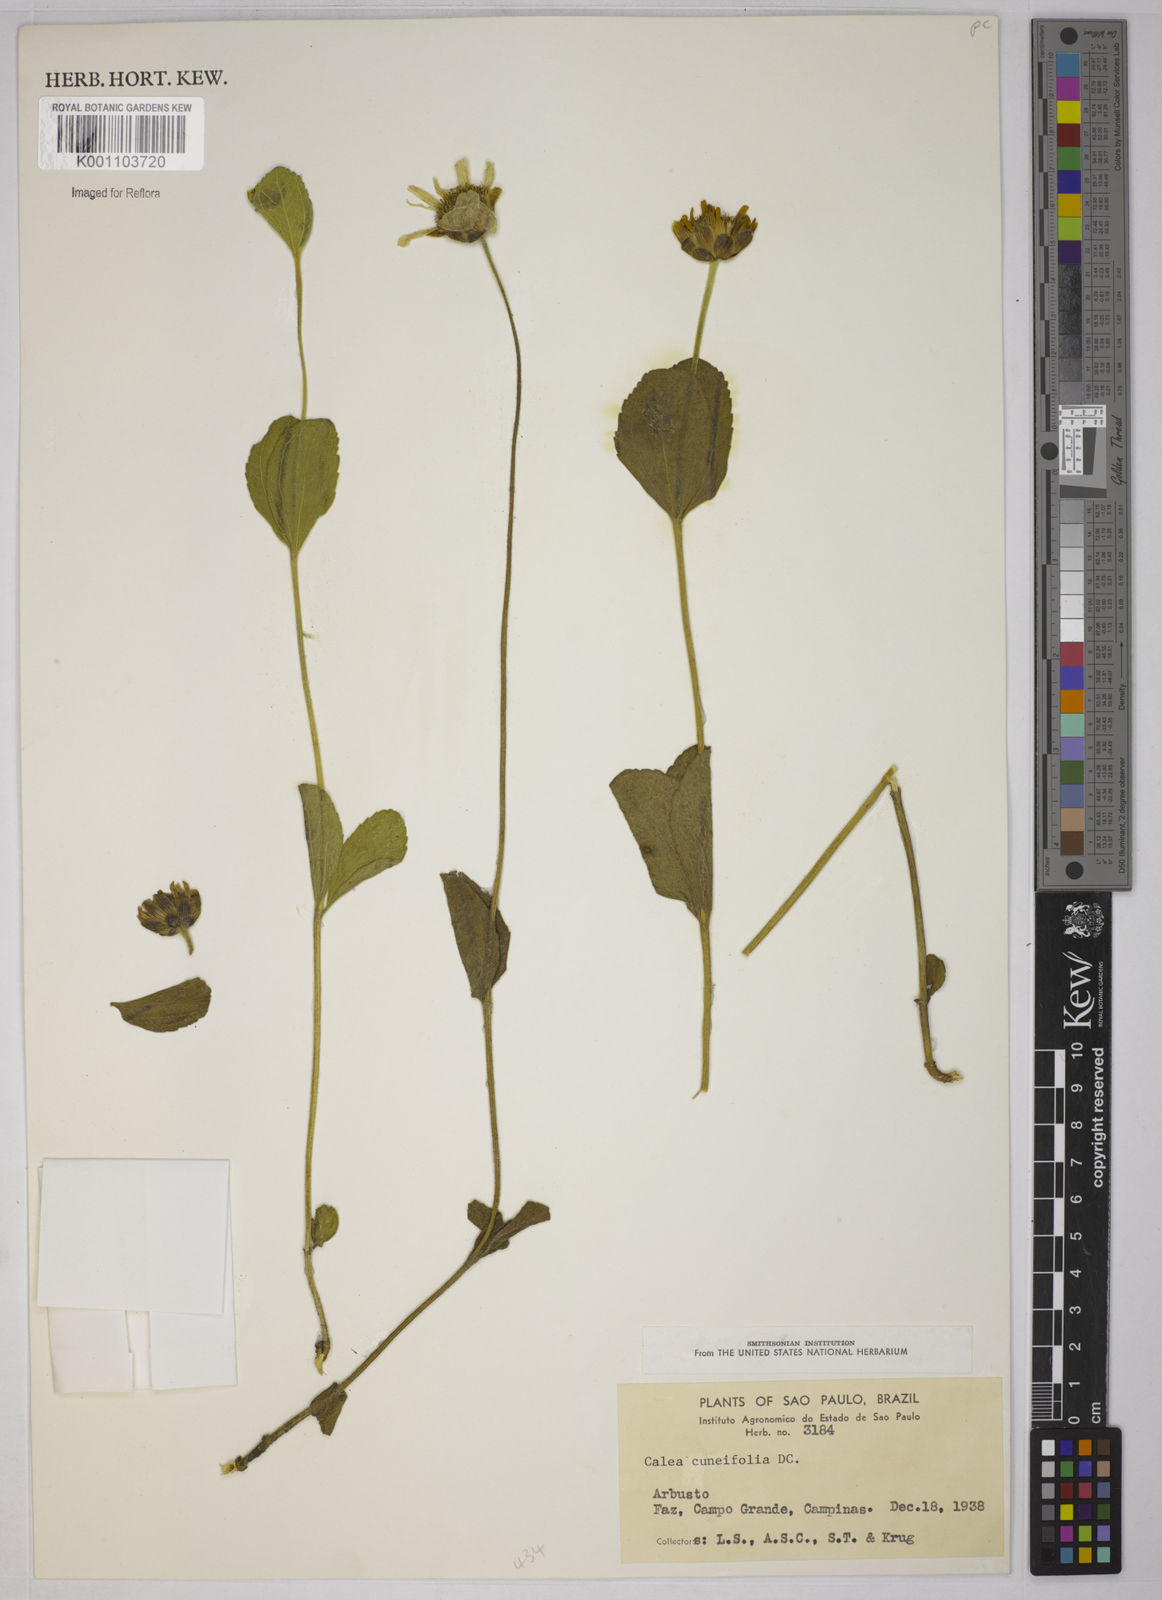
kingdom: Plantae
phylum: Tracheophyta
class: Magnoliopsida
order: Asterales
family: Asteraceae
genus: Calea
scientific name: Calea cuneifolia
